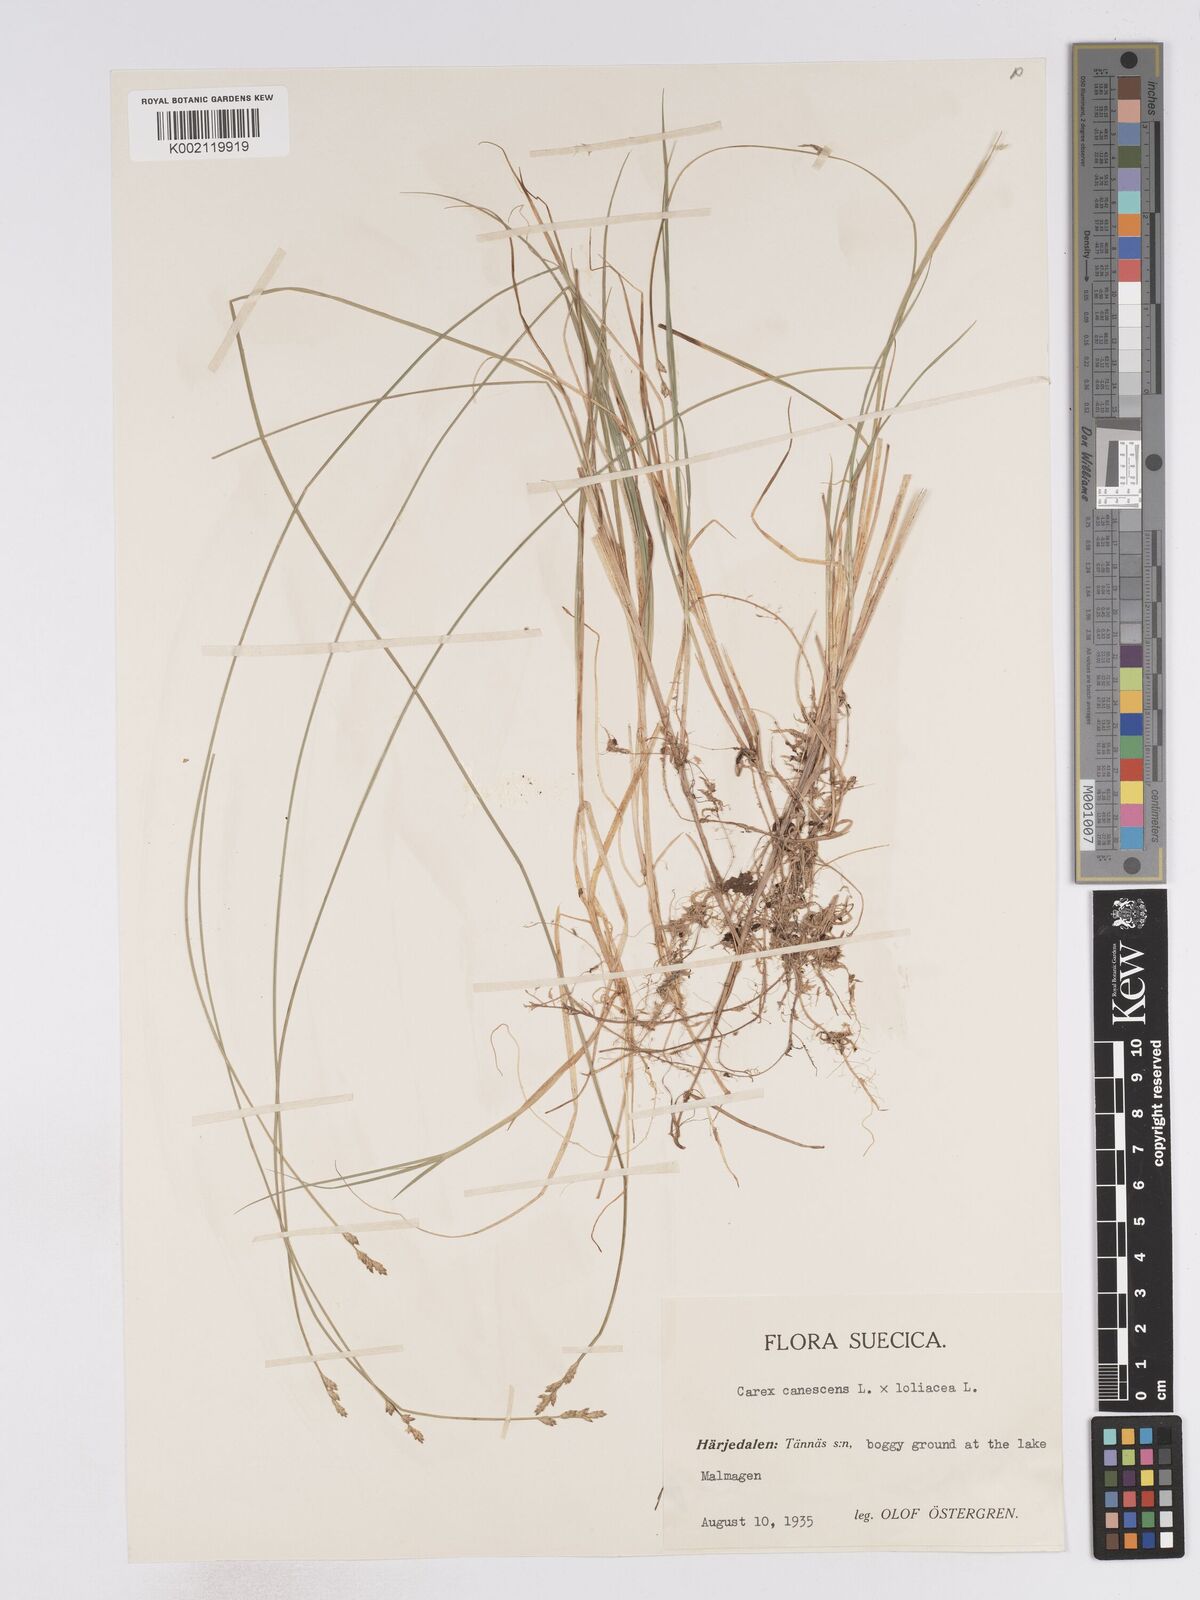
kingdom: Plantae
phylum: Tracheophyta
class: Liliopsida
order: Poales
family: Cyperaceae
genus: Carex
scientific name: Carex curta
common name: White sedge
